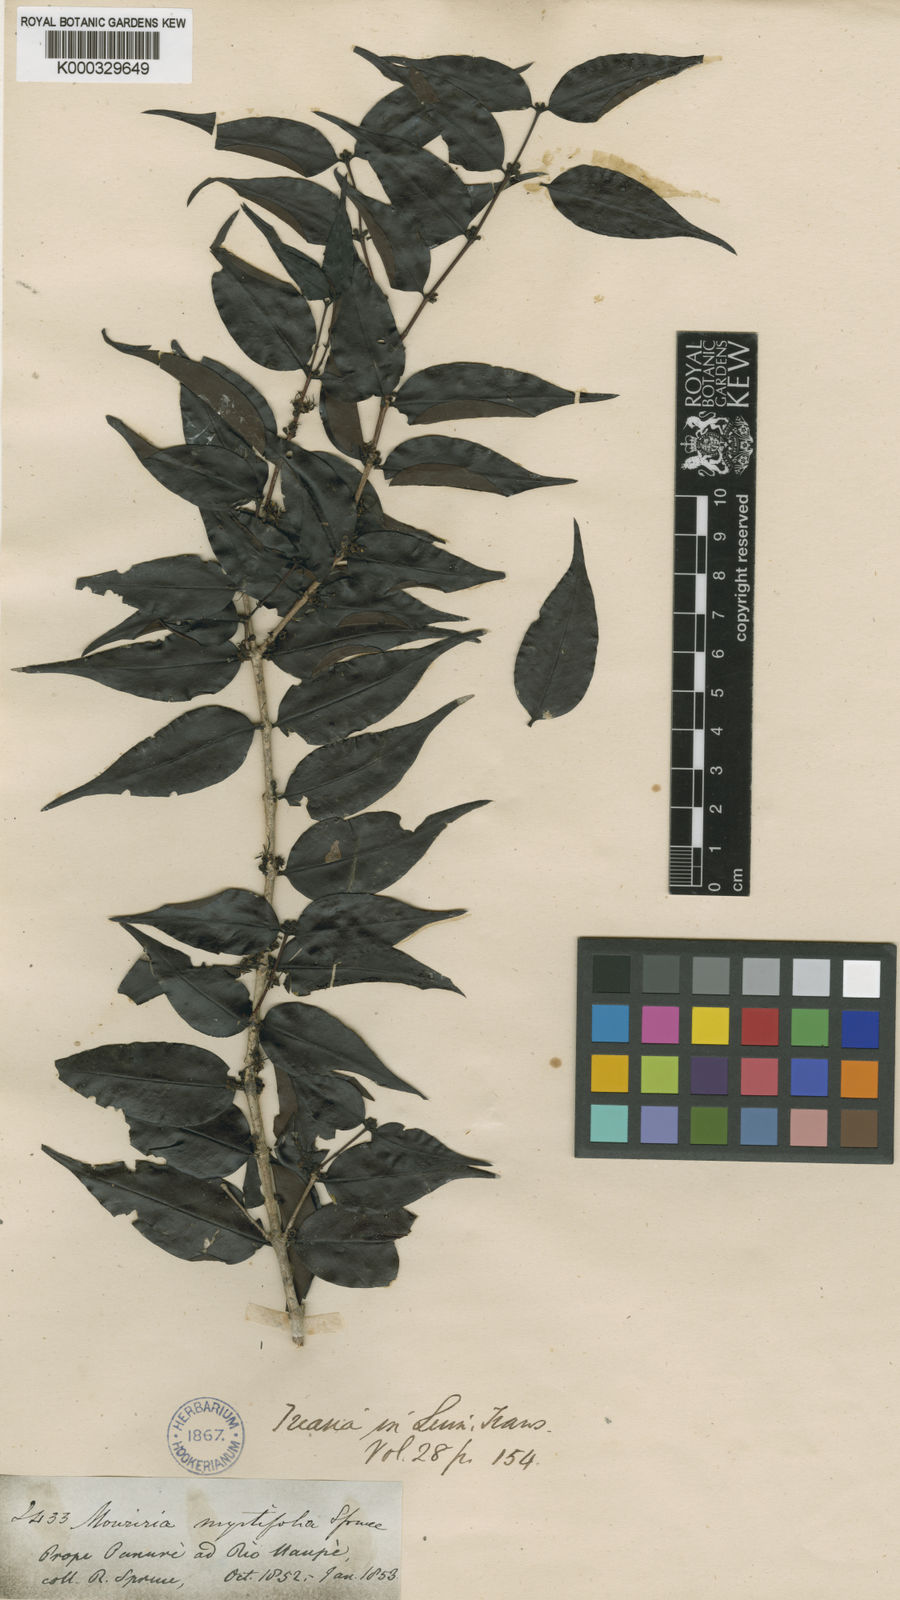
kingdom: Plantae
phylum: Tracheophyta
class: Magnoliopsida
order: Myrtales
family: Melastomataceae
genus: Mouriri
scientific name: Mouriri myrtifolia
